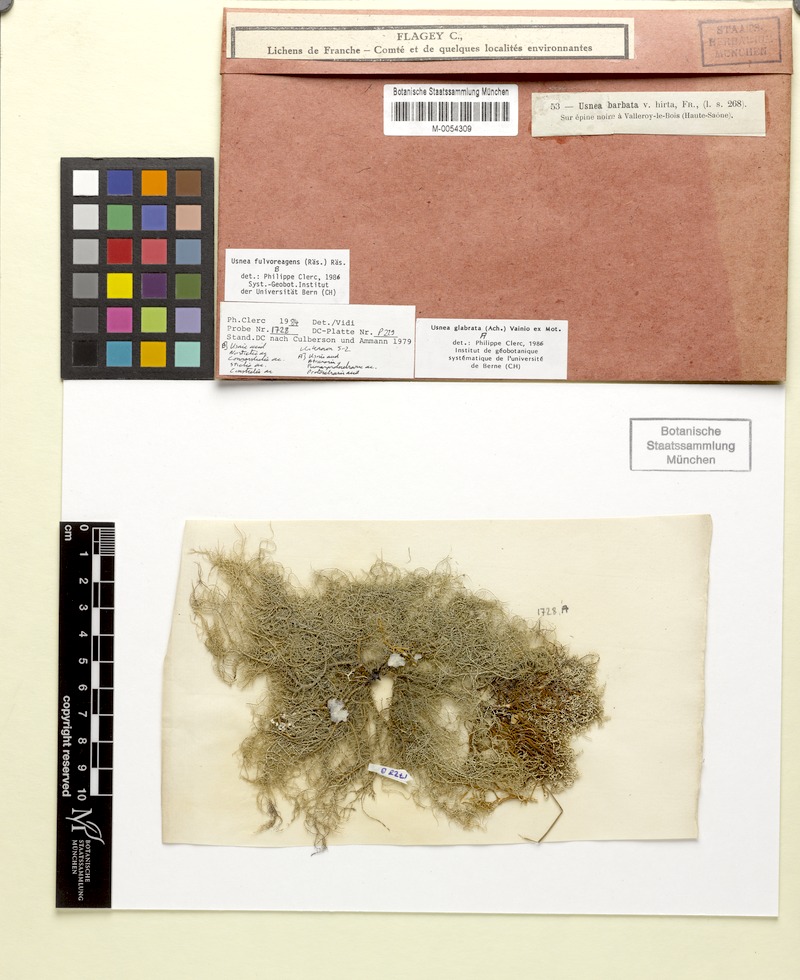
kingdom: Fungi
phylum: Ascomycota
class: Lecanoromycetes
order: Lecanorales
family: Parmeliaceae
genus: Usnea
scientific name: Usnea glabrata
